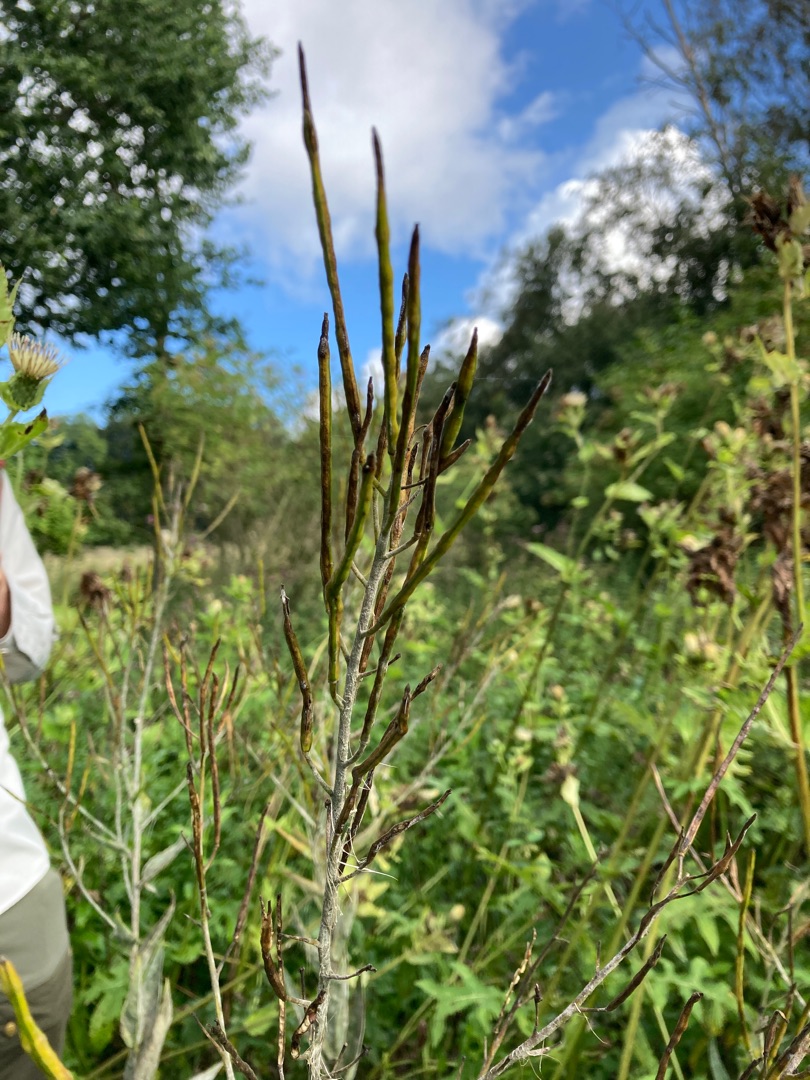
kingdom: Plantae
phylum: Tracheophyta
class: Magnoliopsida
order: Brassicales
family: Brassicaceae
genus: Hesperis
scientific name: Hesperis matronalis
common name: Aftenstjerne
